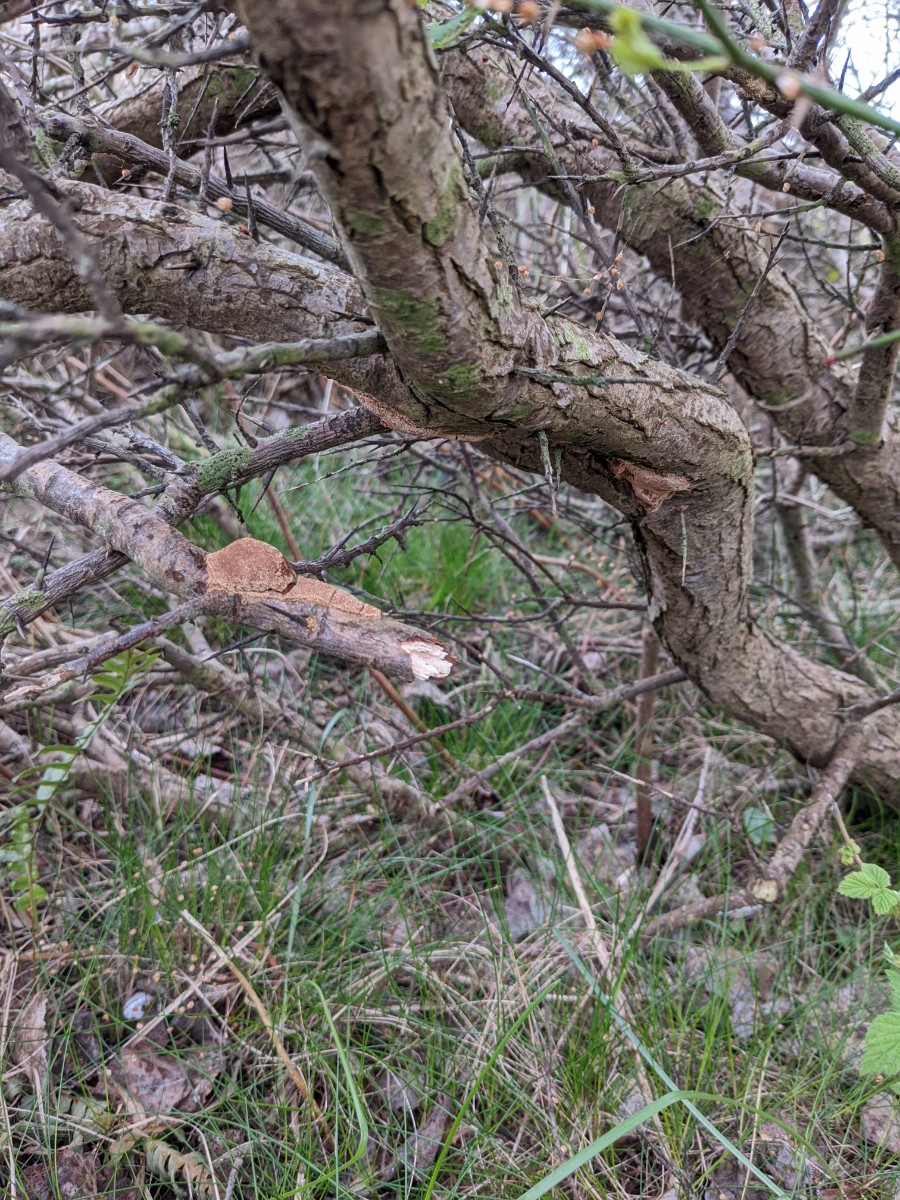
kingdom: Fungi
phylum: Basidiomycota
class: Agaricomycetes
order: Hymenochaetales
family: Hymenochaetaceae
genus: Fomitiporia
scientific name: Fomitiporia hippophaeicola
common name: havtorn-ildporesvamp
